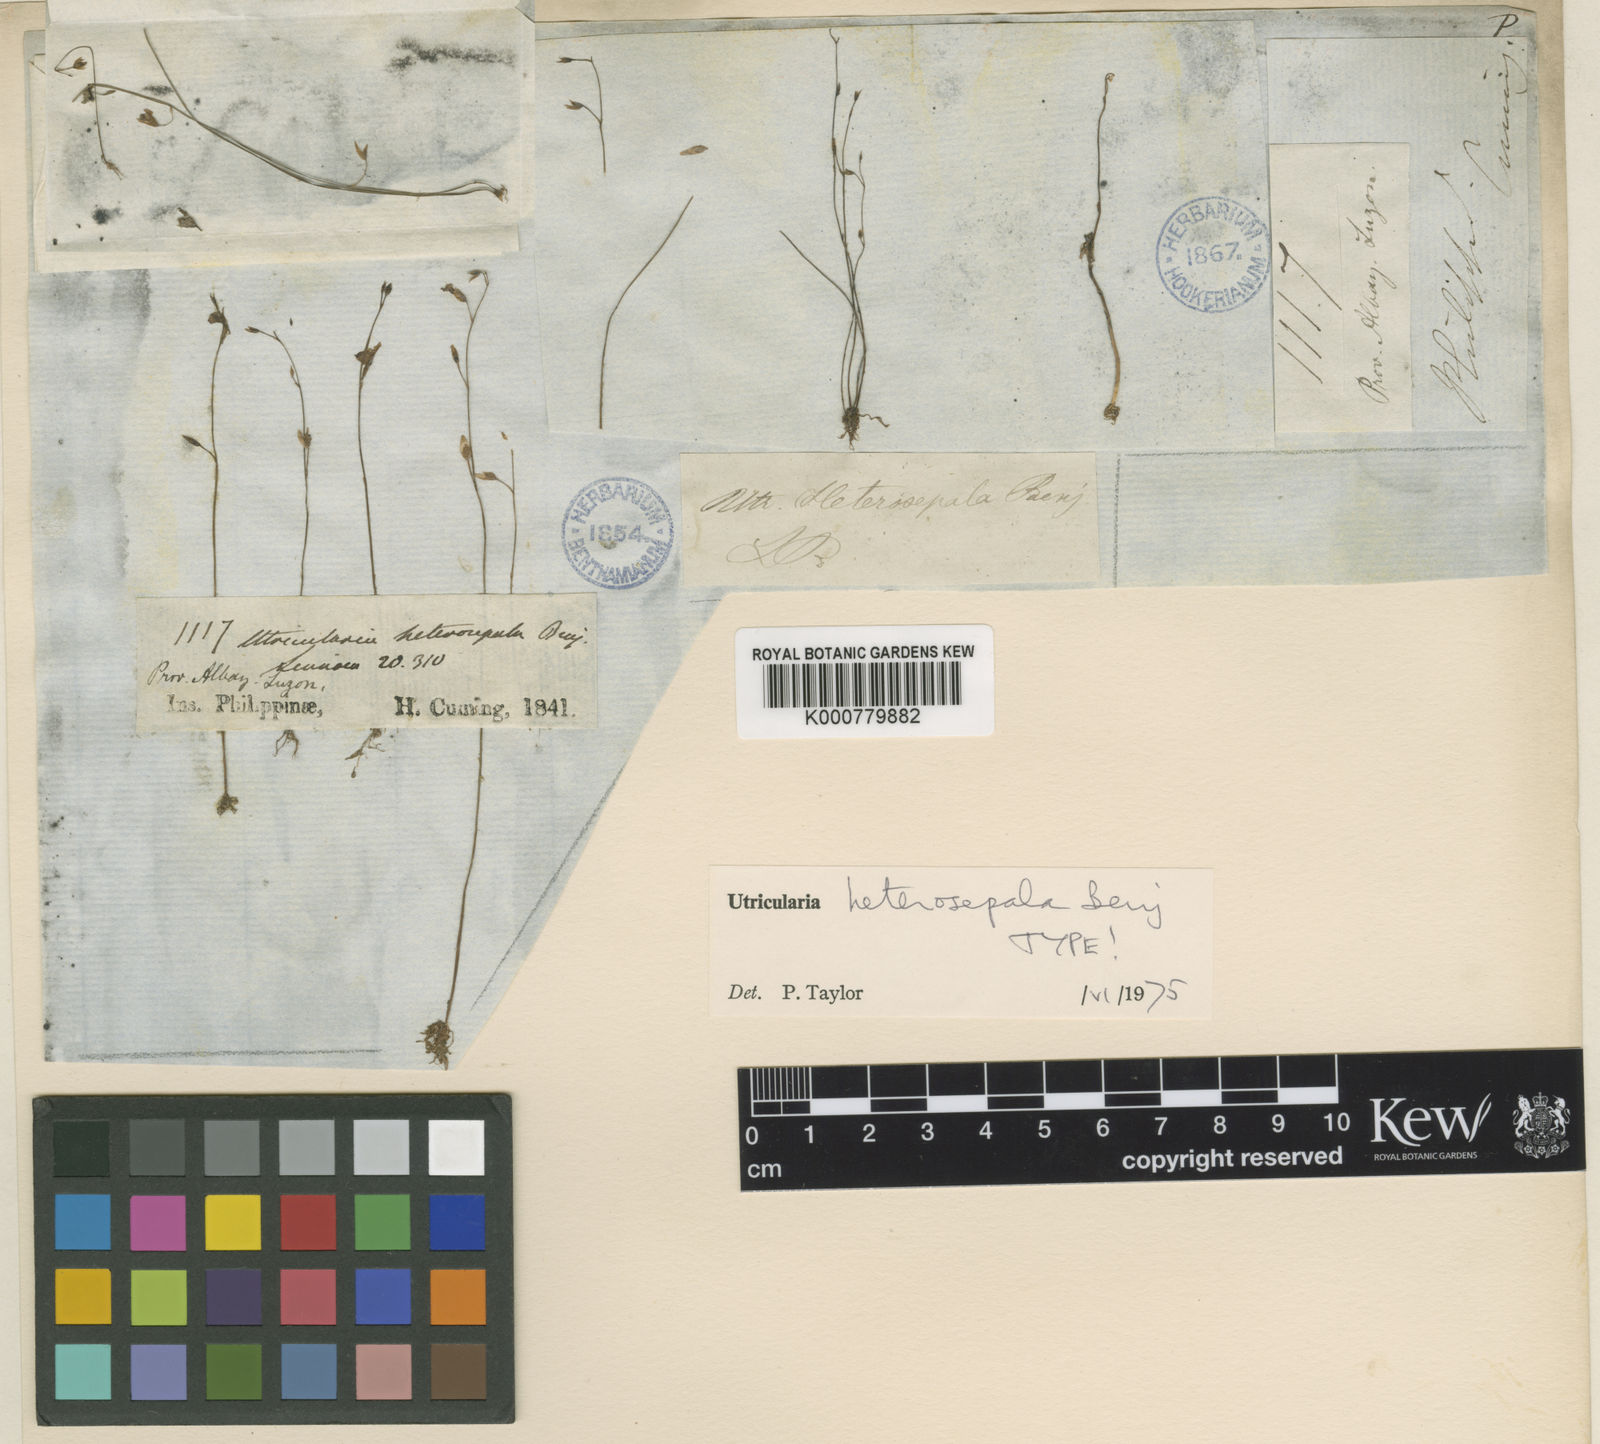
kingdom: Plantae
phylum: Tracheophyta
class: Magnoliopsida
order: Lamiales
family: Lentibulariaceae
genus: Utricularia
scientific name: Utricularia heterosepala
